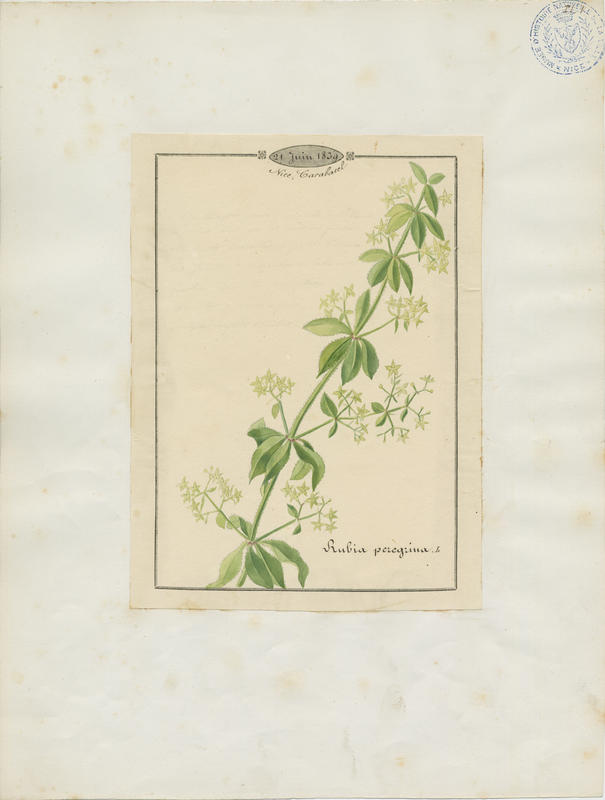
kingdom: Plantae
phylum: Tracheophyta
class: Magnoliopsida
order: Gentianales
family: Rubiaceae
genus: Rubia
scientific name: Rubia peregrina
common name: Wild madder
